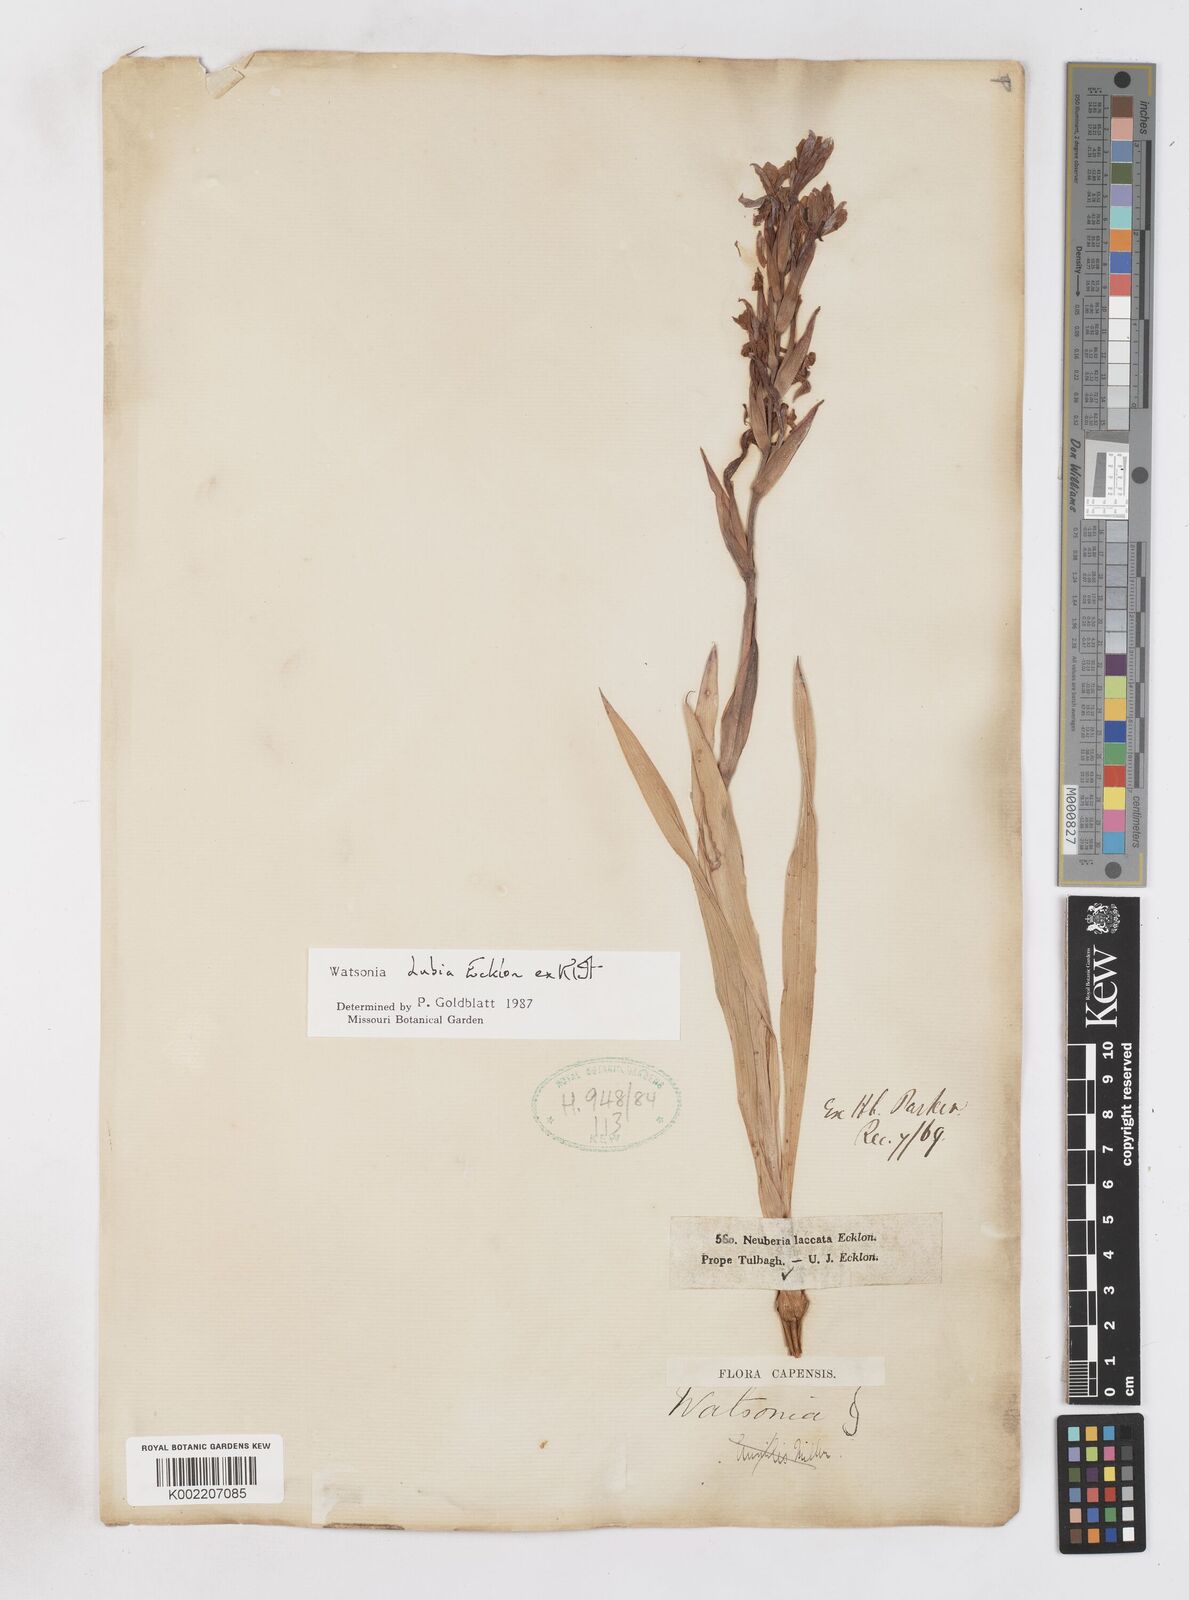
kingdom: Plantae
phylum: Tracheophyta
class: Liliopsida
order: Asparagales
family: Iridaceae
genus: Watsonia
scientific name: Watsonia dubia
